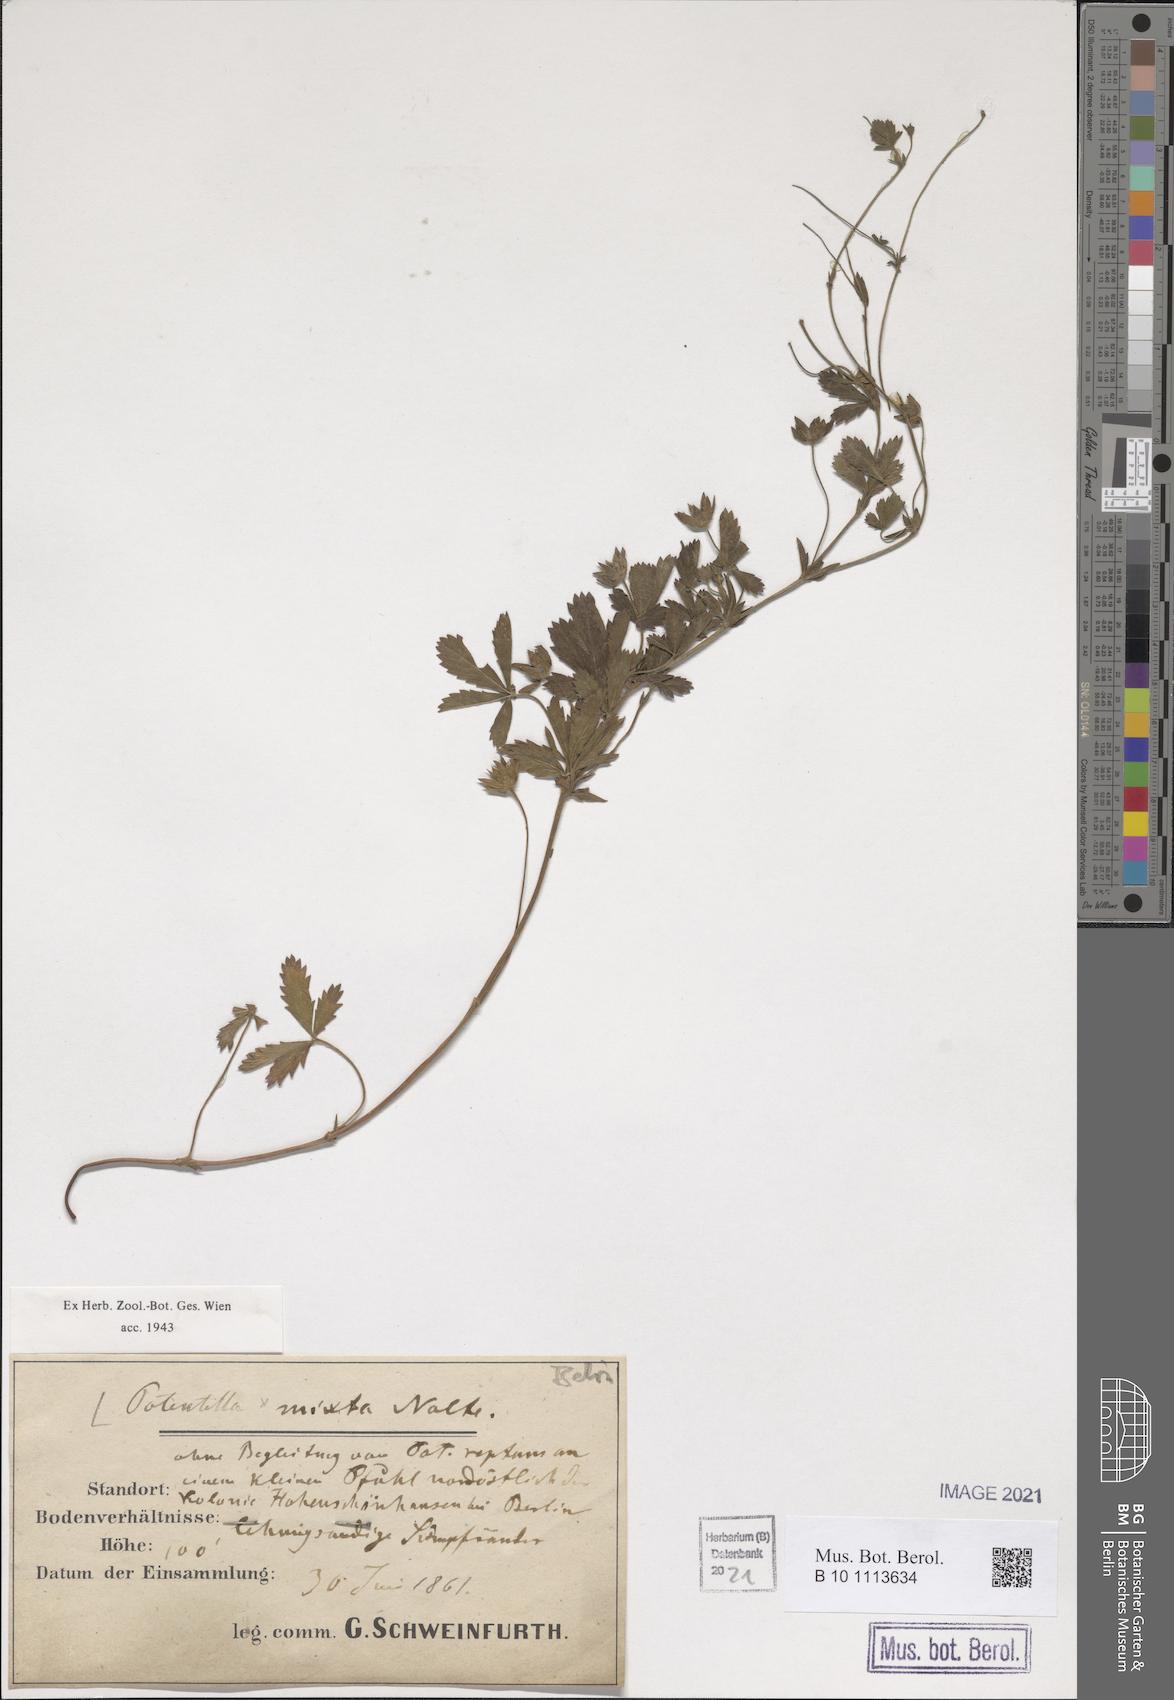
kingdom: Plantae
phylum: Tracheophyta
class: Magnoliopsida
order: Rosales
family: Rosaceae
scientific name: Rosaceae
